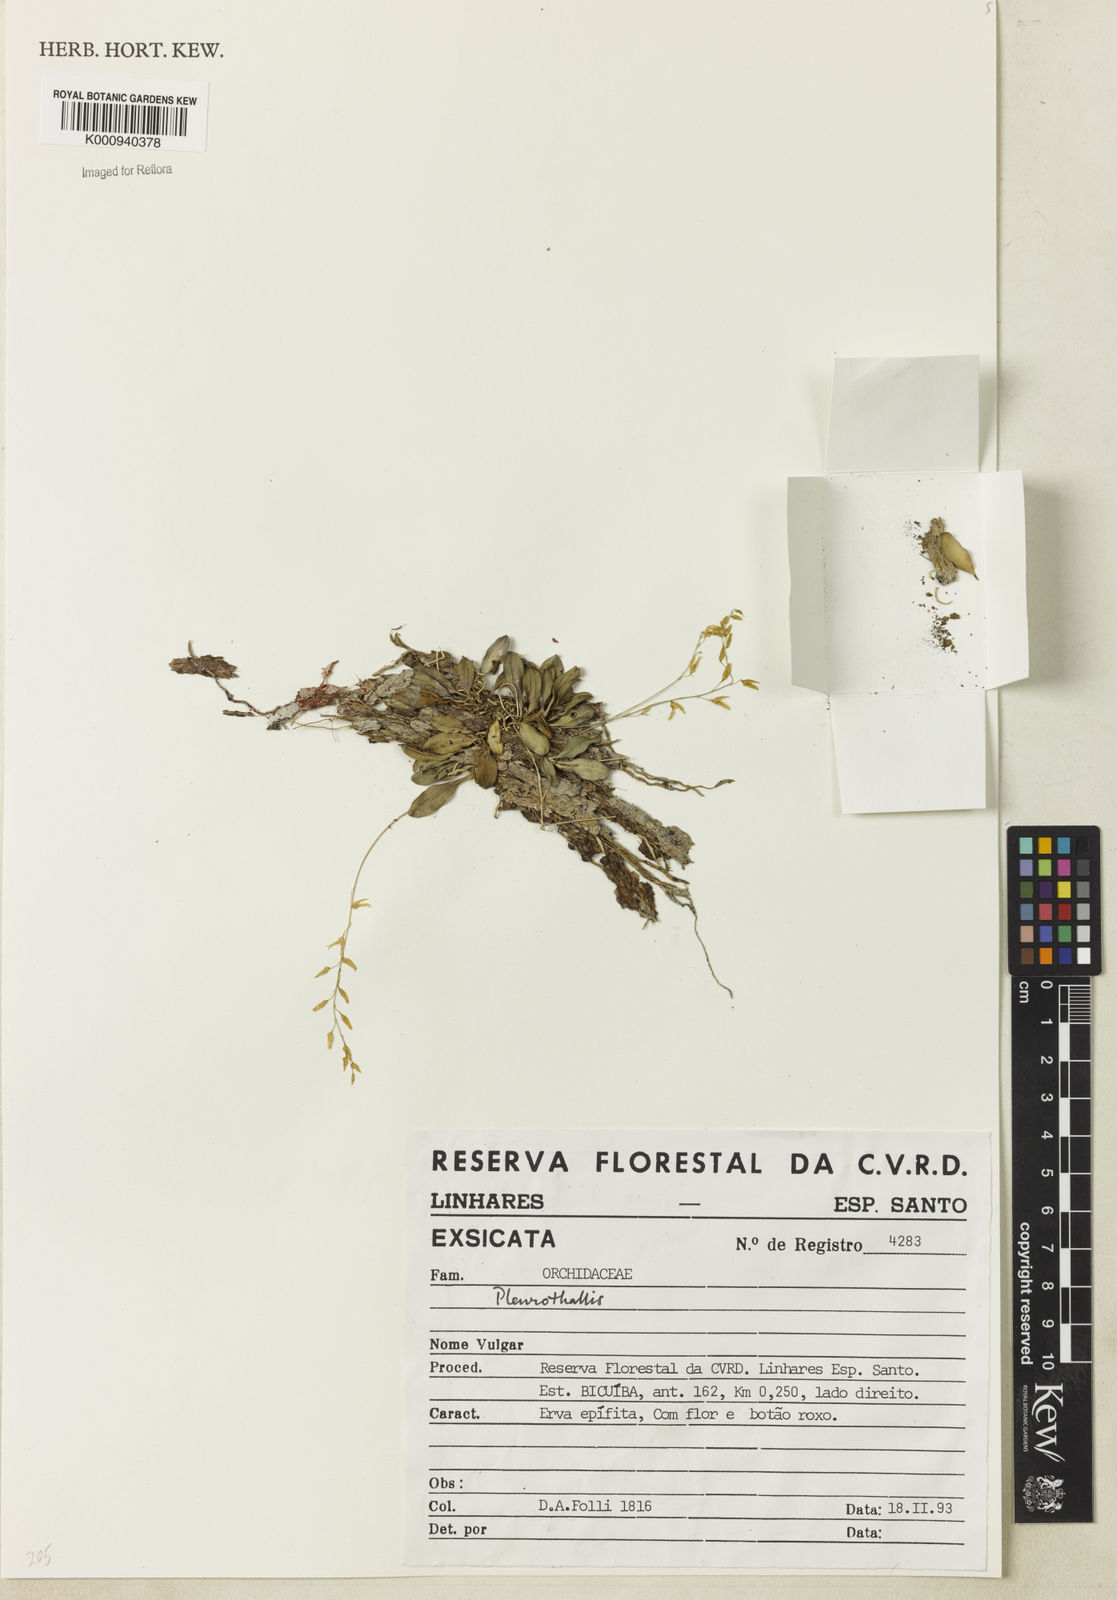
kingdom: Plantae
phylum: Tracheophyta
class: Liliopsida
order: Asparagales
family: Orchidaceae
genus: Specklinia
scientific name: Specklinia grobyi
